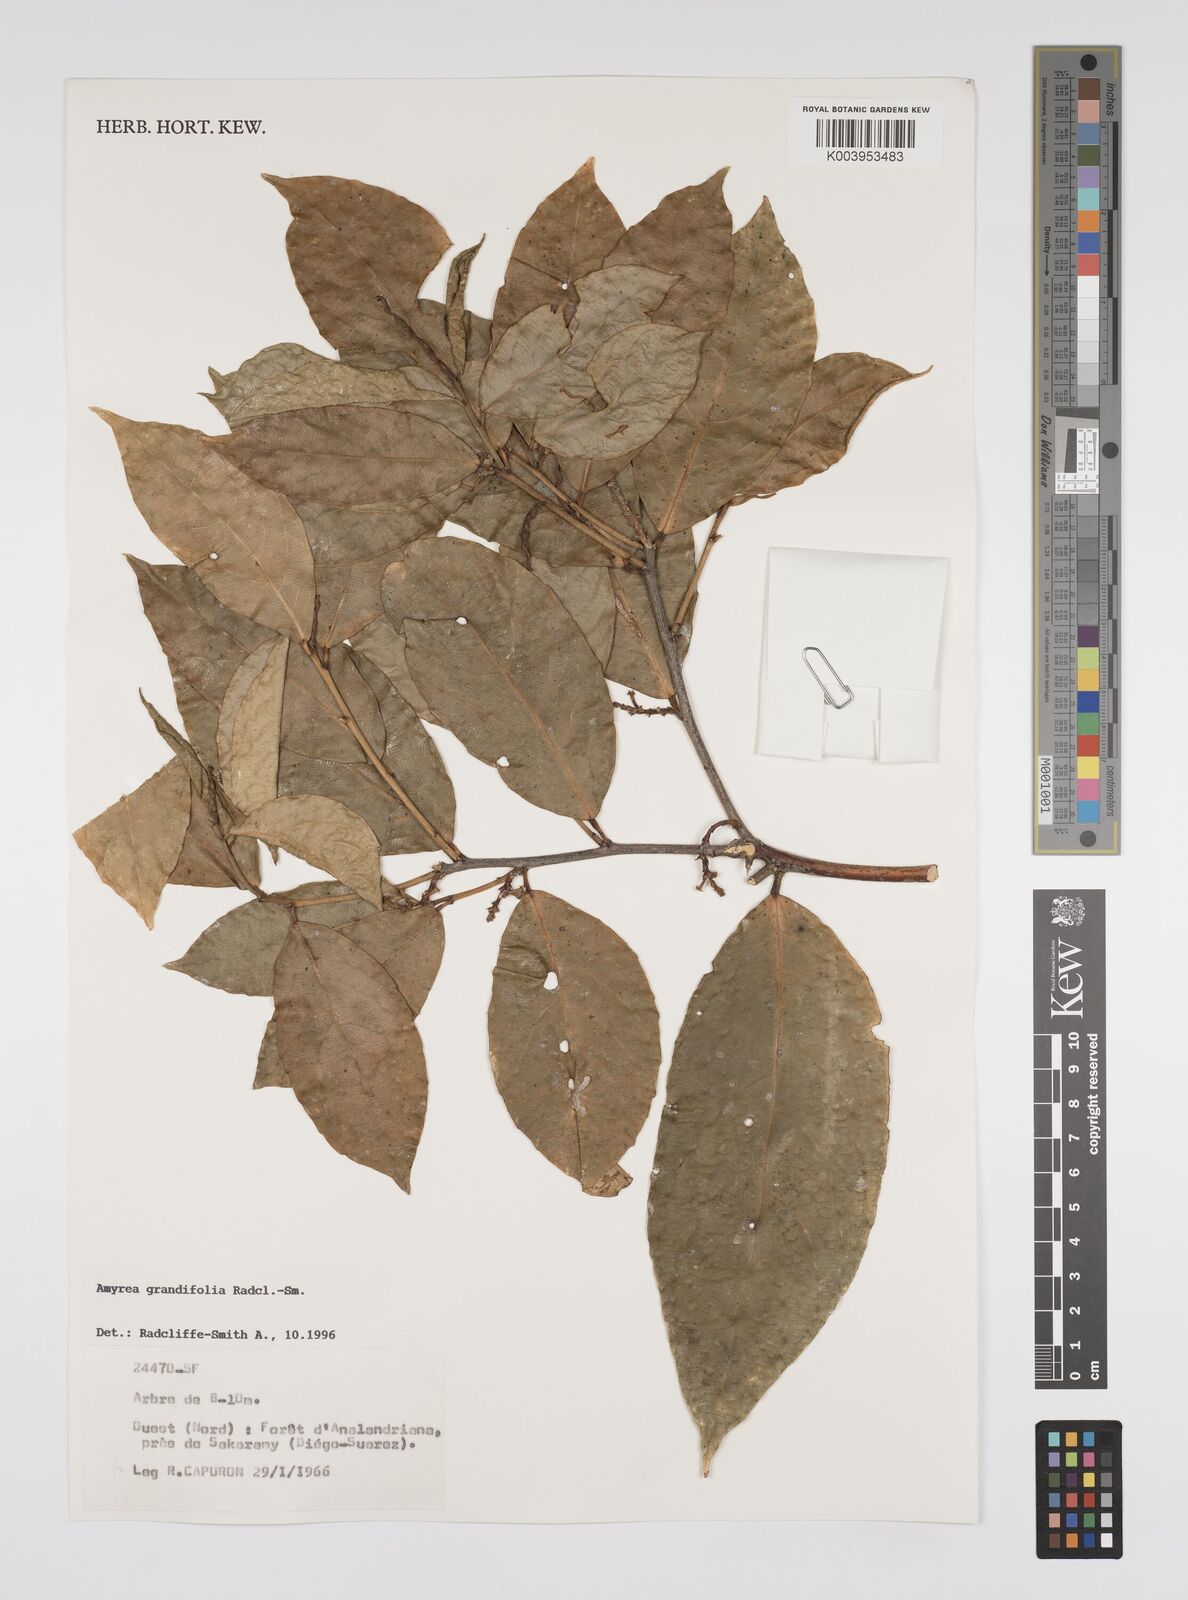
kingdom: Plantae
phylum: Tracheophyta
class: Magnoliopsida
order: Malpighiales
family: Euphorbiaceae
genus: Amyrea
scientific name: Amyrea grandifolia
